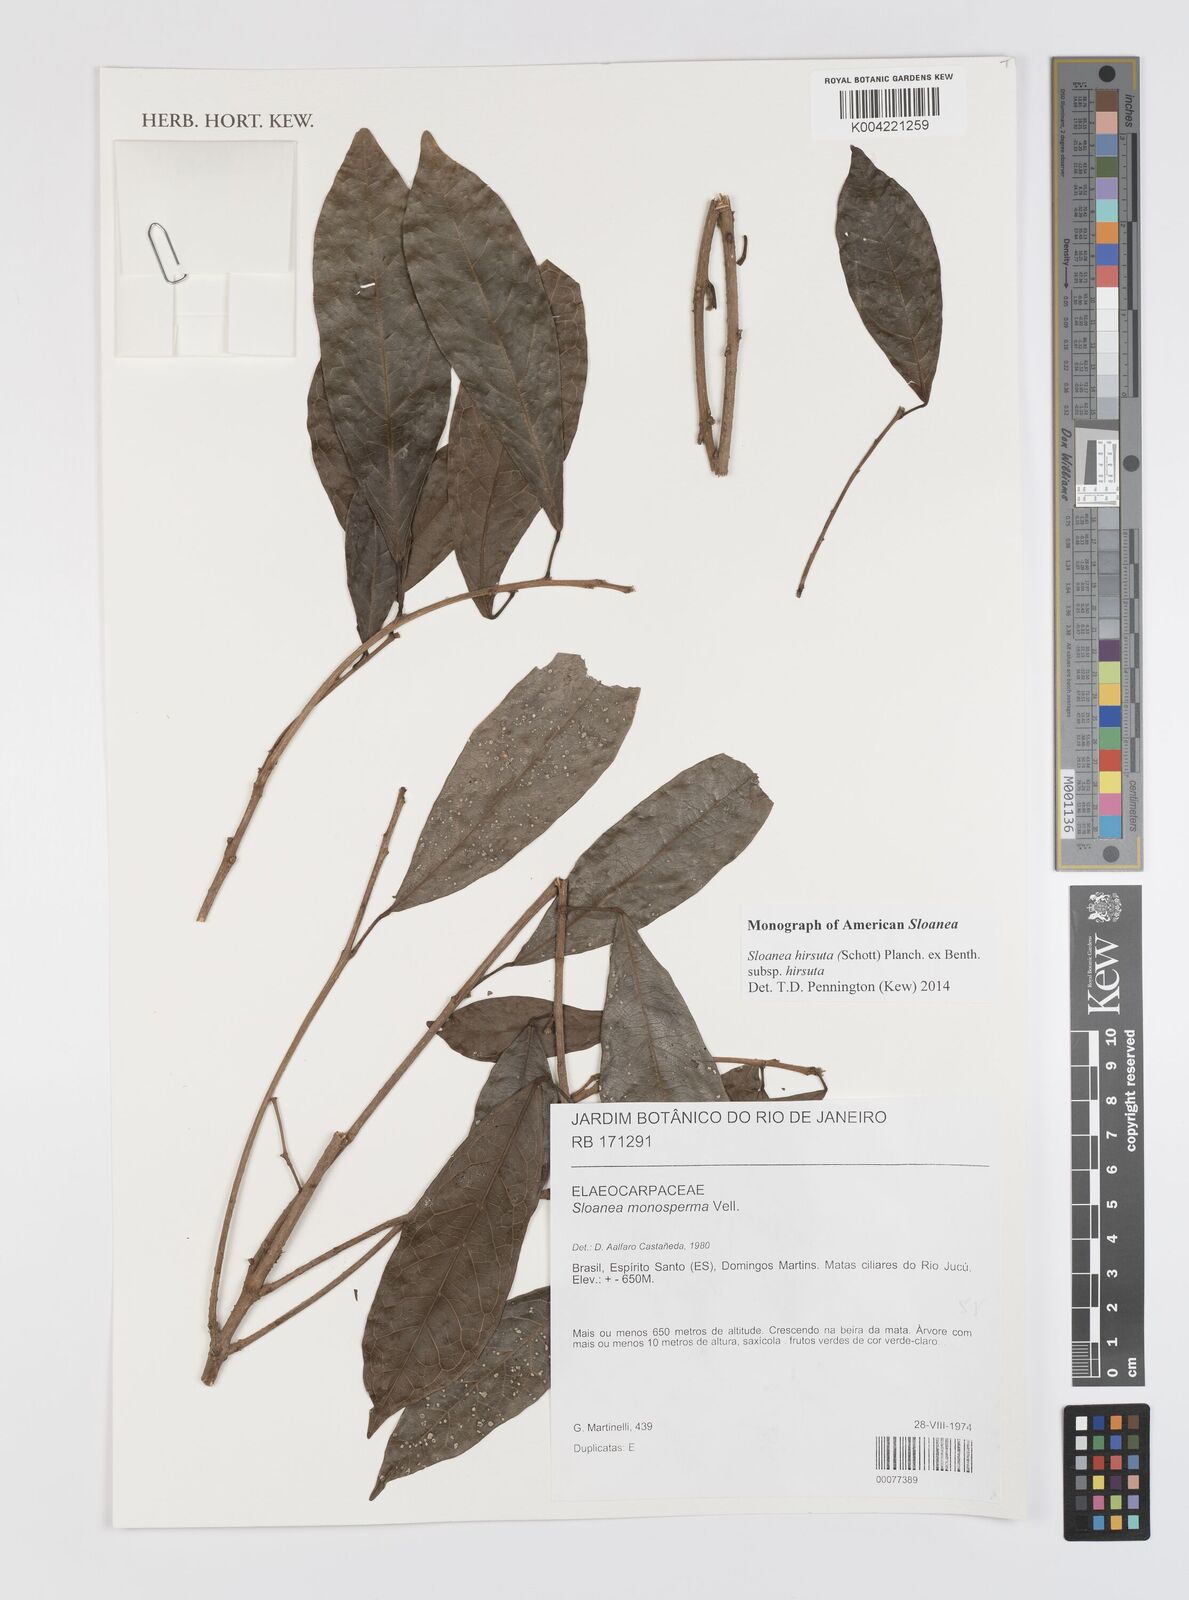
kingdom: Plantae
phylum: Tracheophyta
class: Magnoliopsida
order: Oxalidales
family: Elaeocarpaceae
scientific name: Elaeocarpaceae
